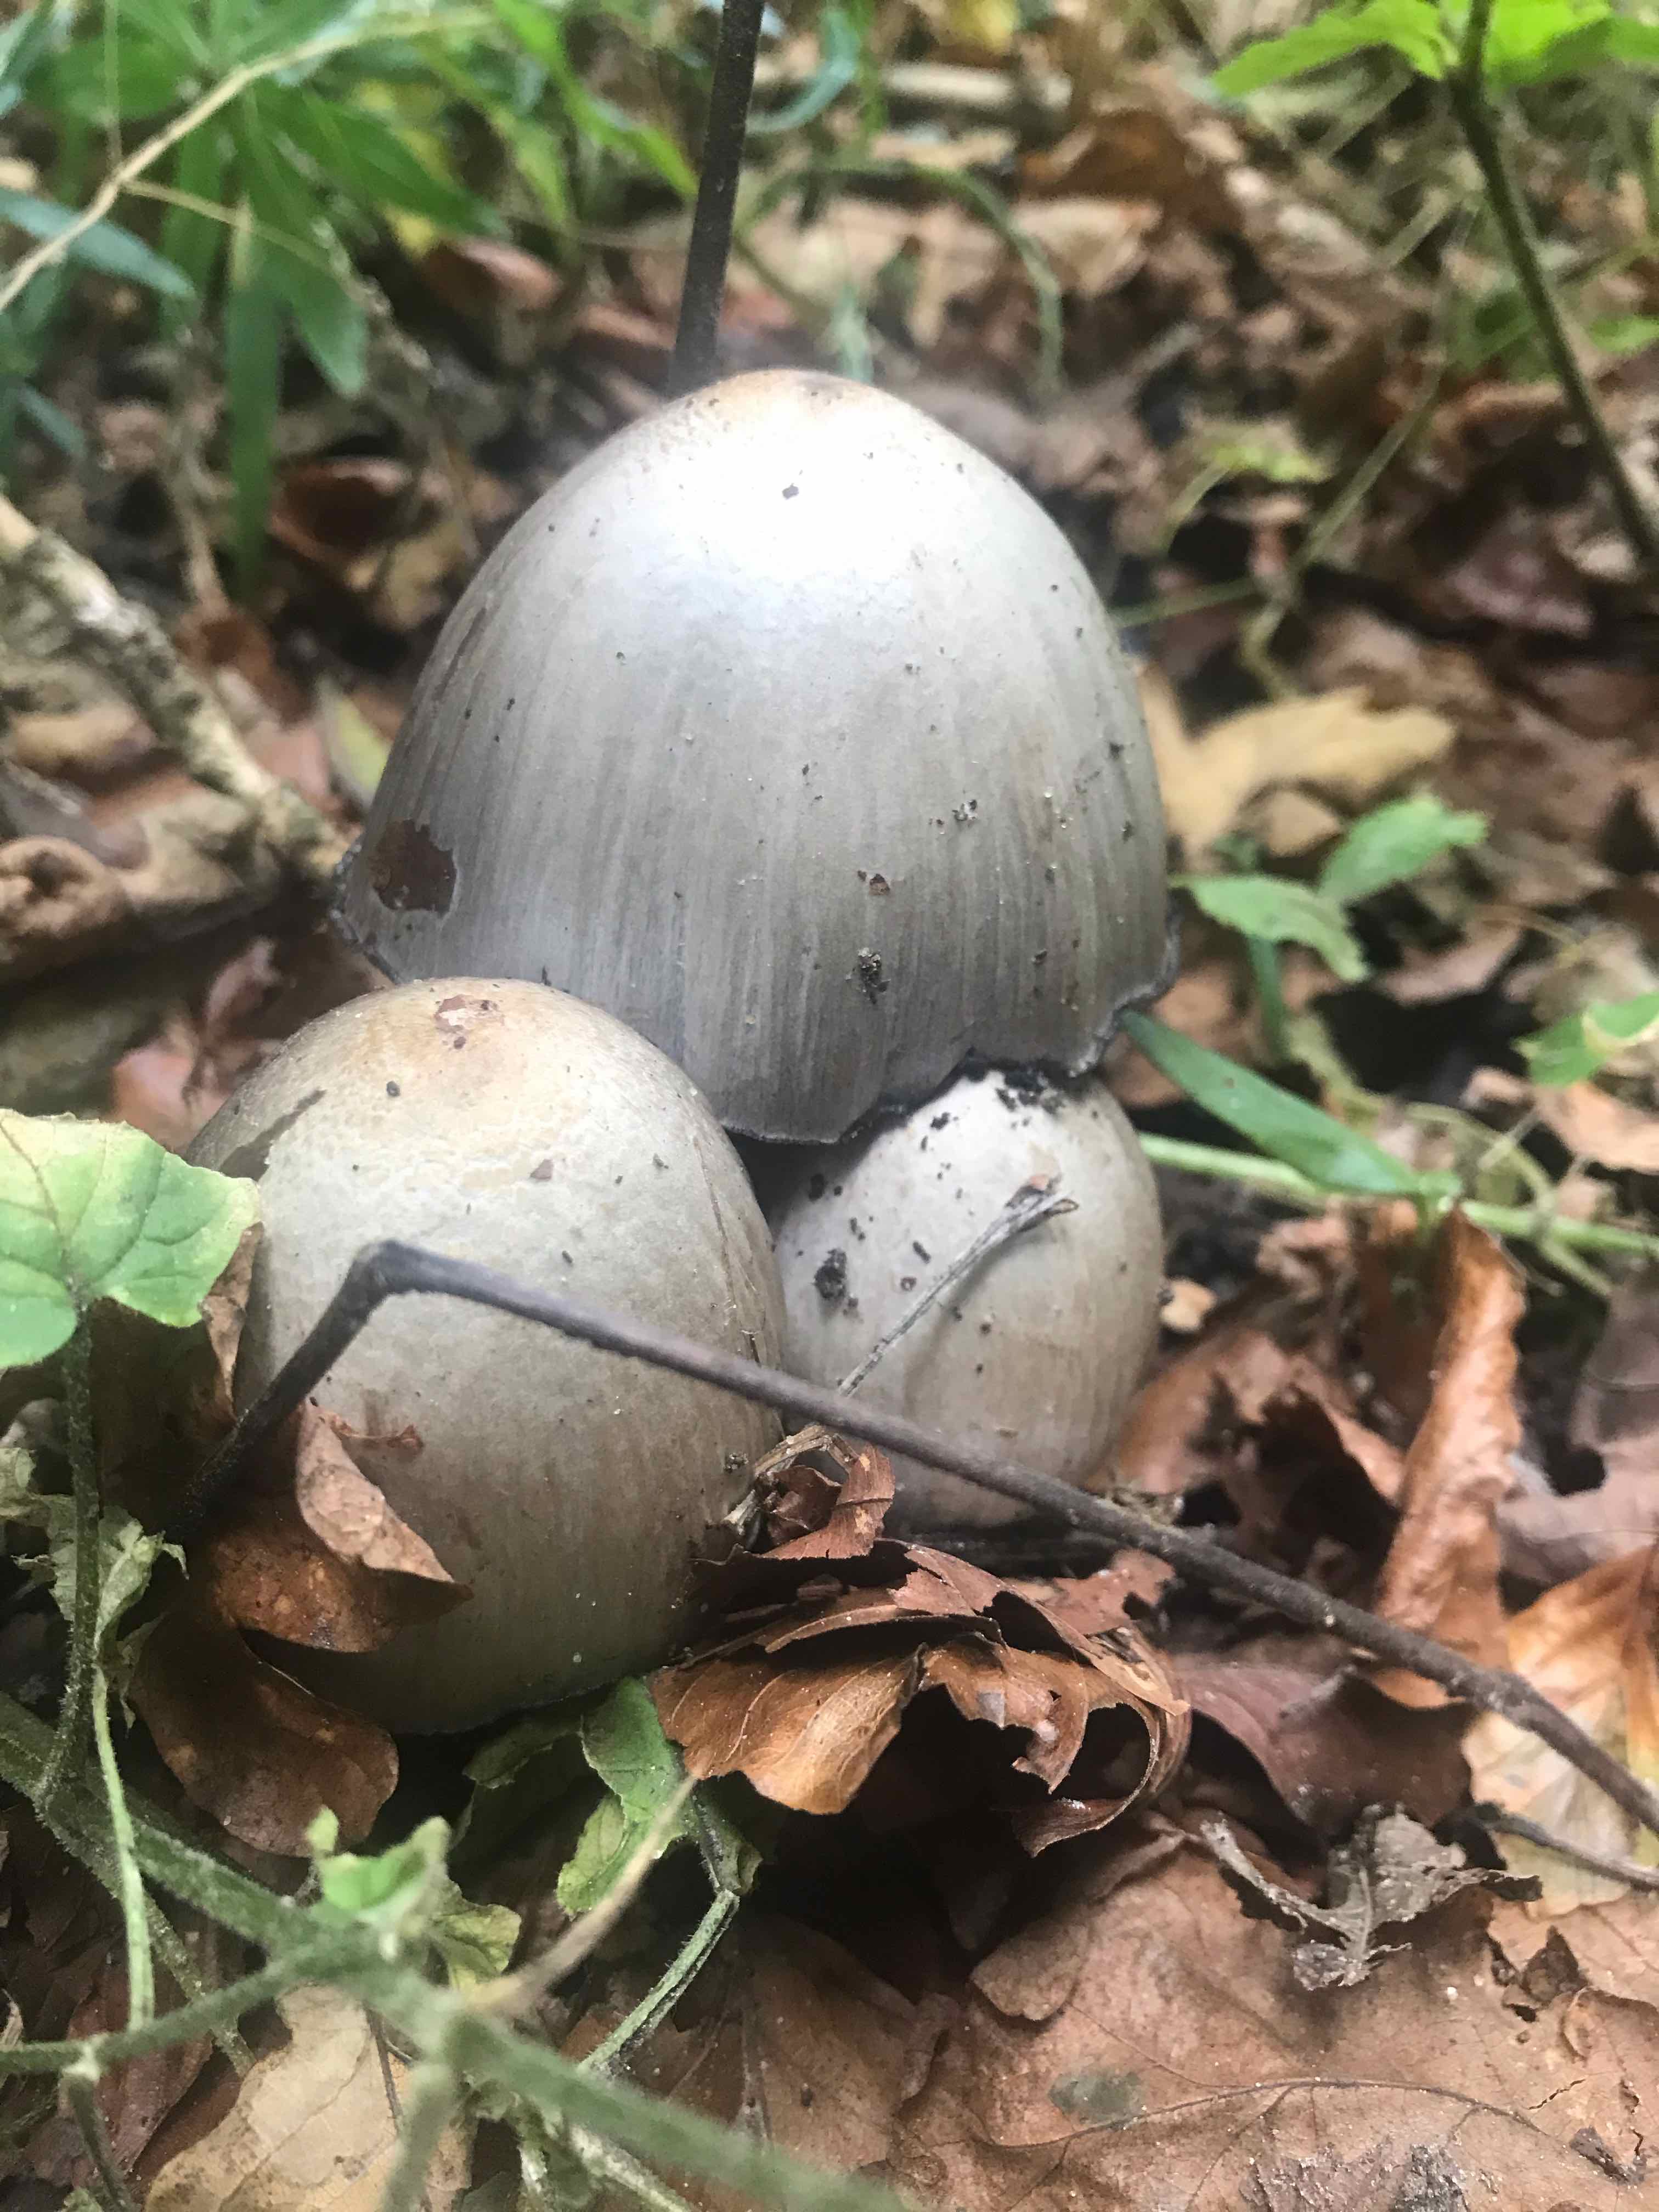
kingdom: Fungi
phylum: Basidiomycota
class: Agaricomycetes
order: Agaricales
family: Psathyrellaceae
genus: Coprinopsis
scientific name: Coprinopsis atramentaria
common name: almindelig blækhat
